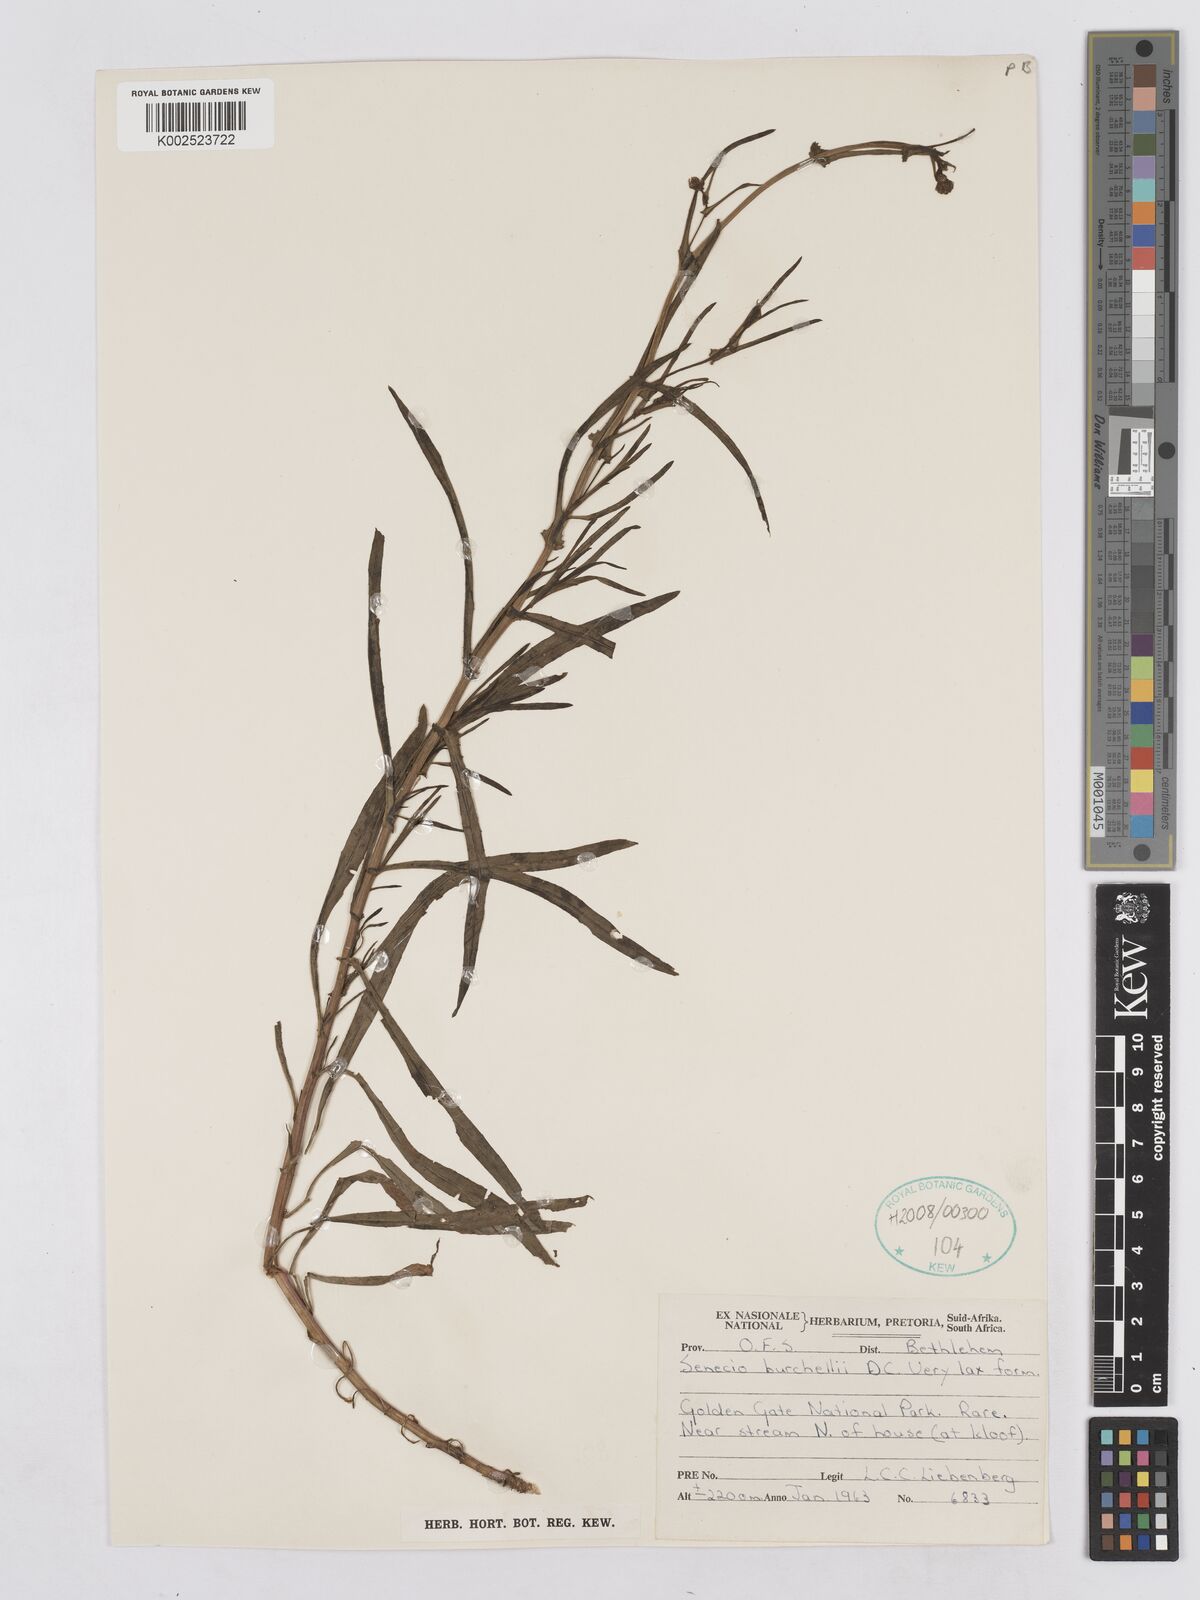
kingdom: Plantae
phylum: Tracheophyta
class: Magnoliopsida
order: Asterales
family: Asteraceae
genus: Senecio
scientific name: Senecio burchellii
